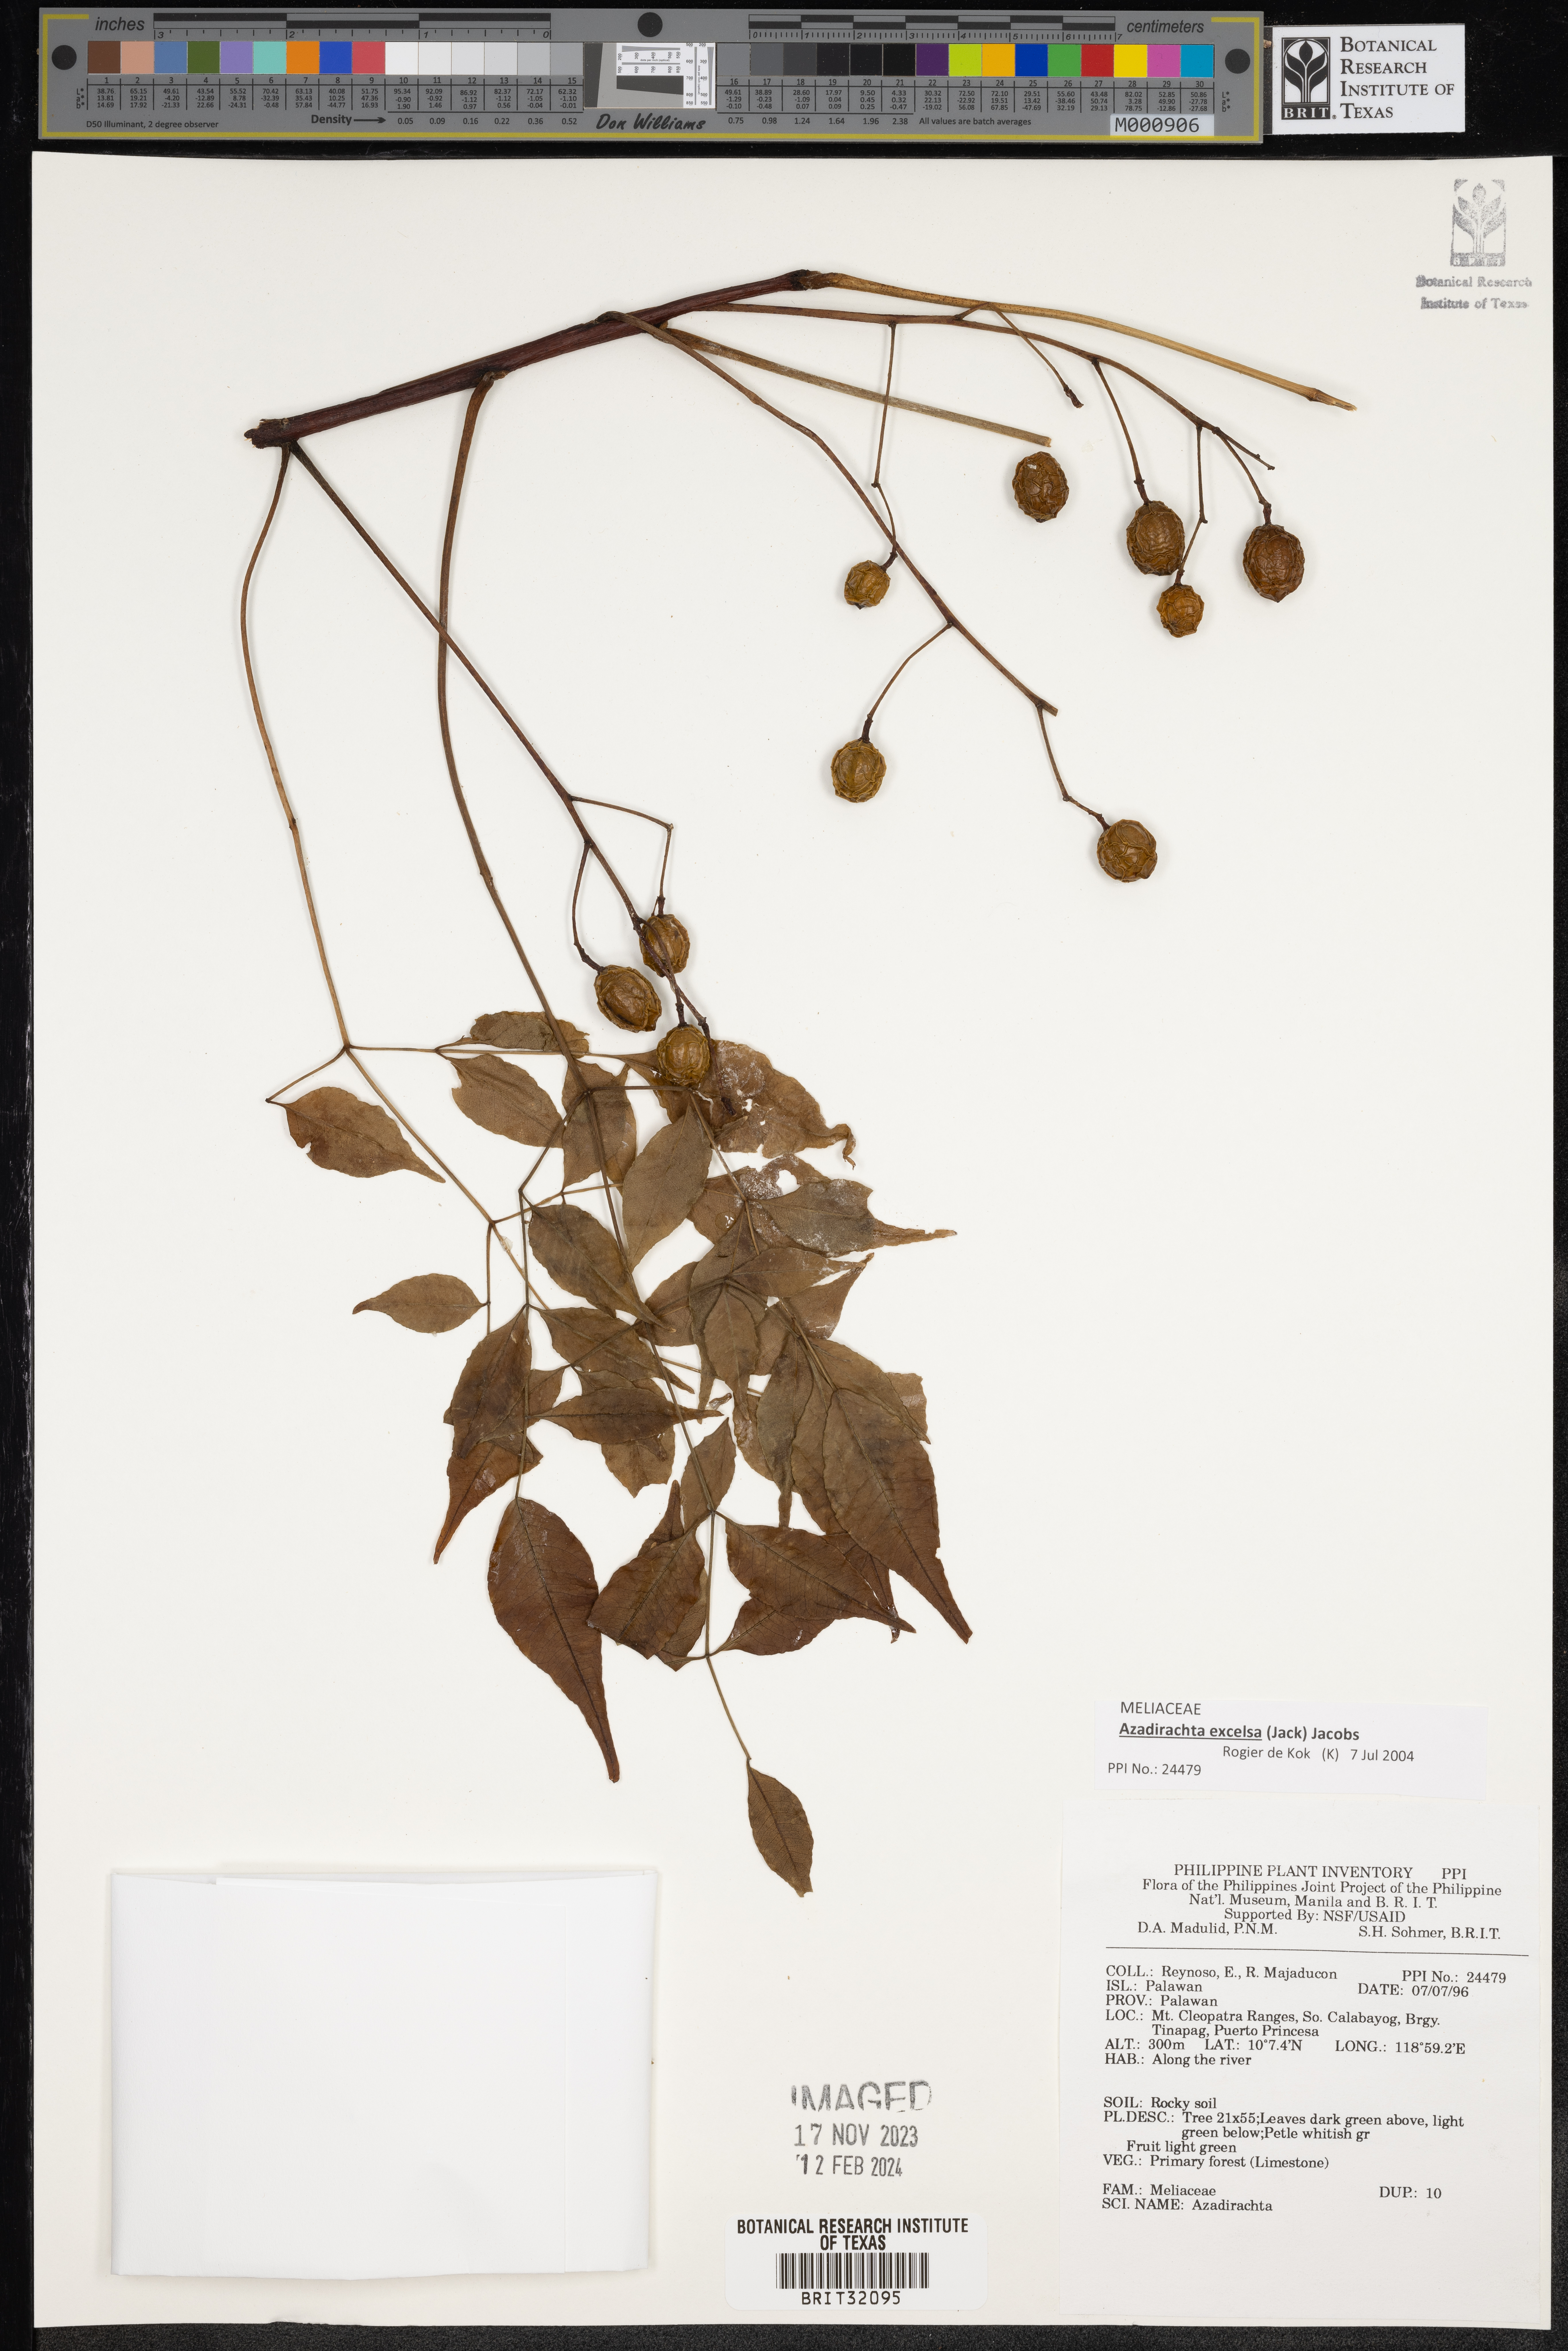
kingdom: Plantae
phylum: Tracheophyta
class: Magnoliopsida
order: Sapindales
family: Meliaceae
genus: Azadirachta
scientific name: Azadirachta
